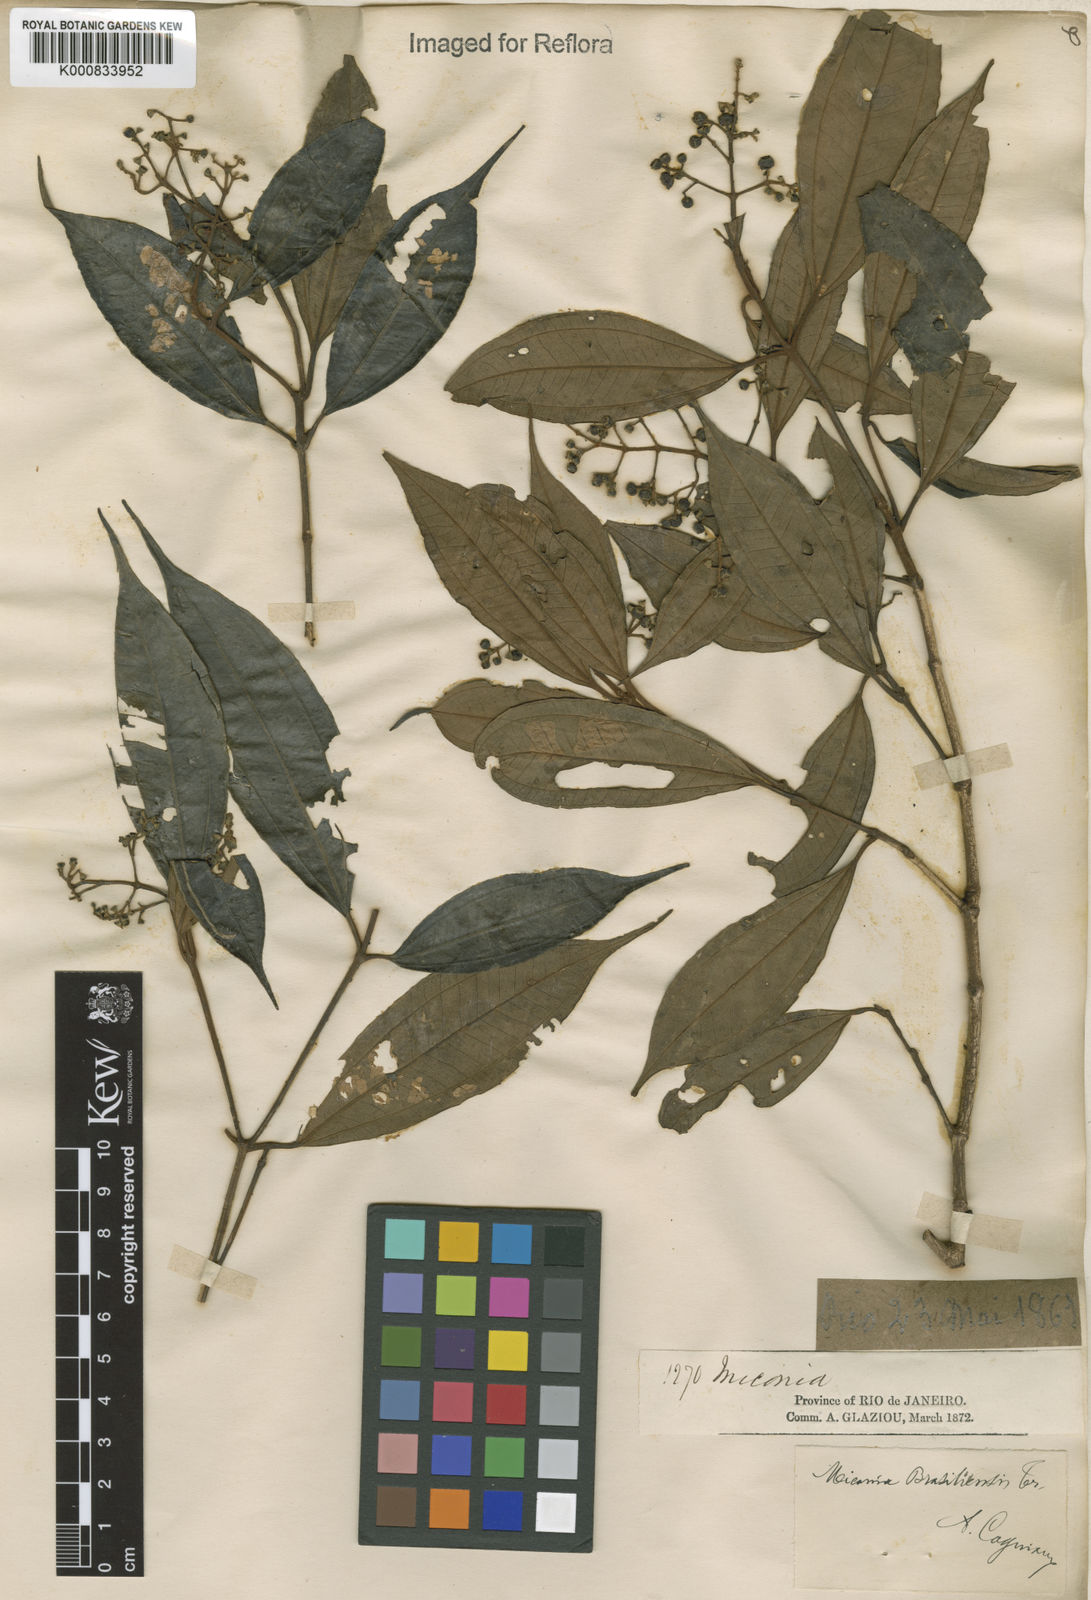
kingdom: Plantae
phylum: Tracheophyta
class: Magnoliopsida
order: Myrtales
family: Melastomataceae
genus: Miconia
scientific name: Miconia brasiliensis
